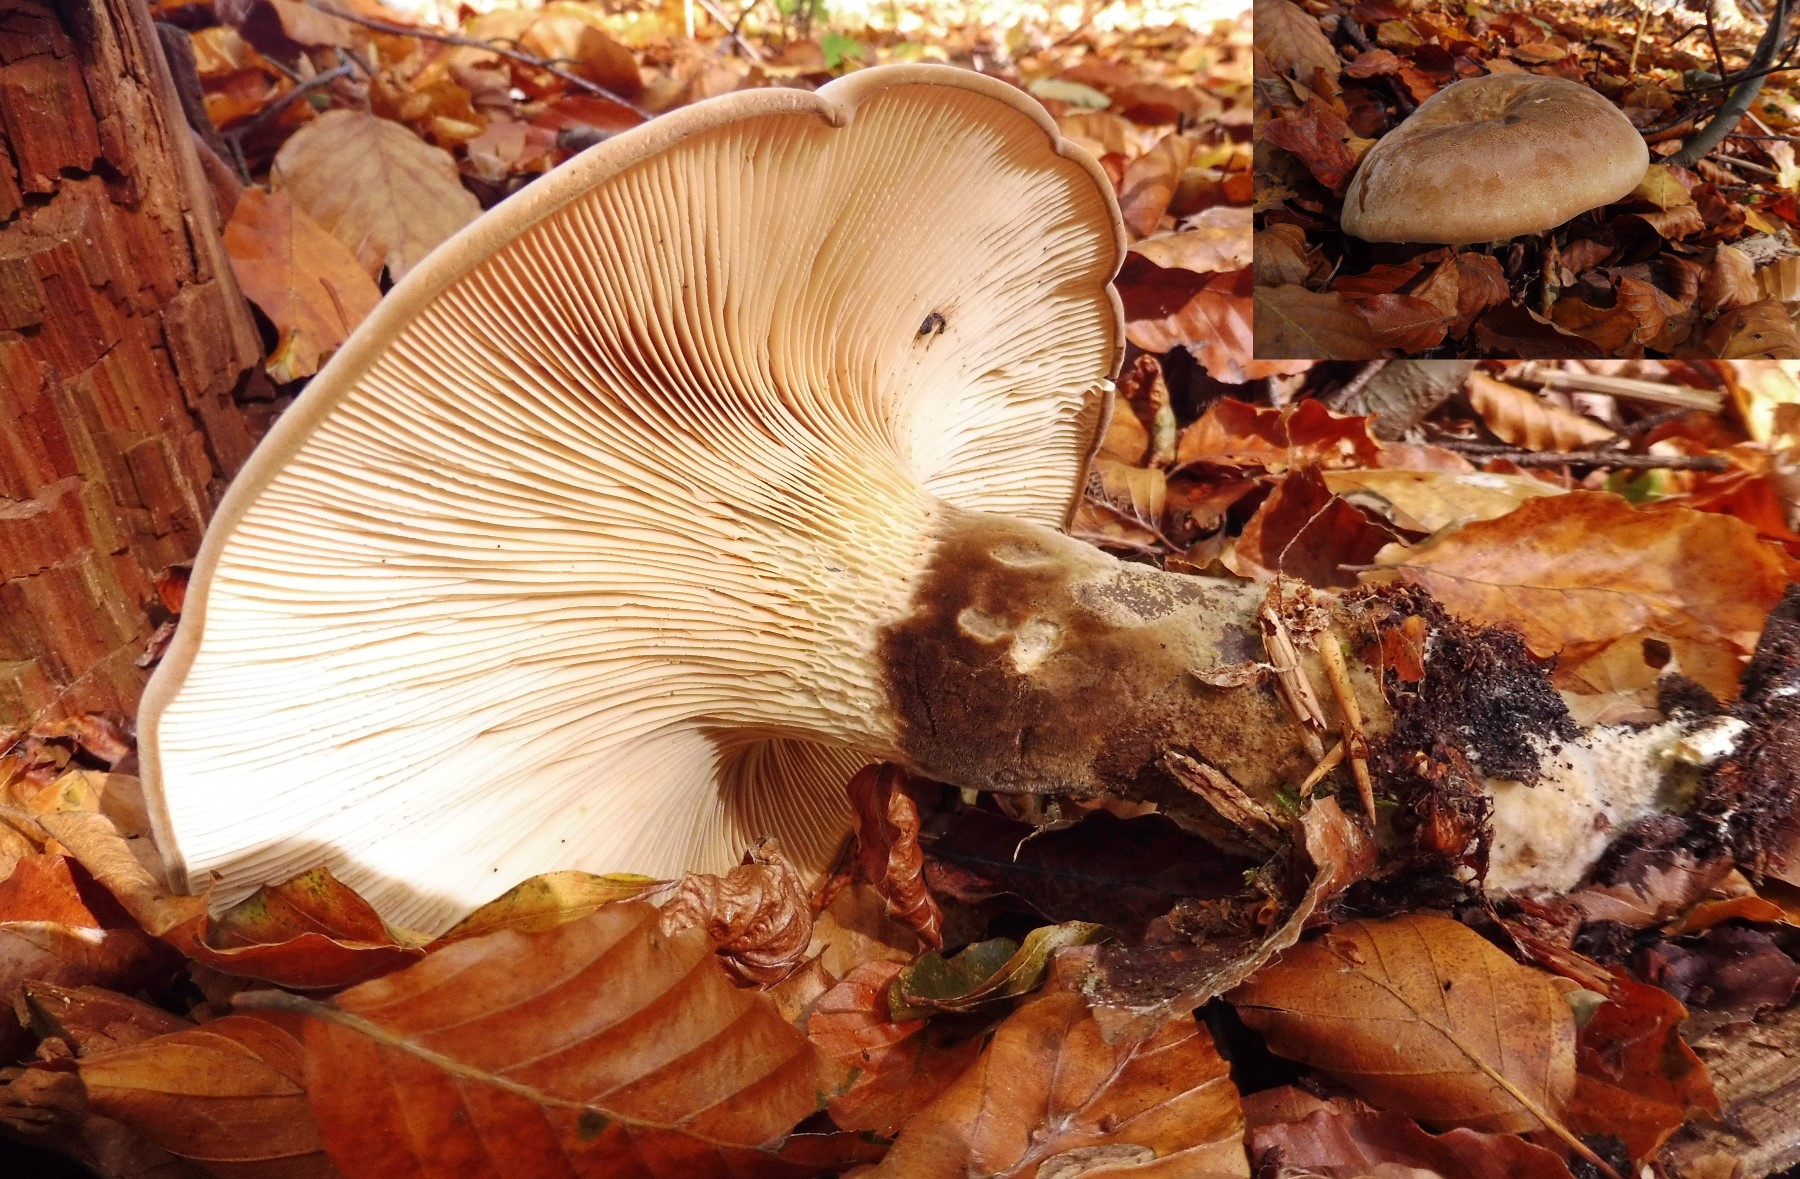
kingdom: Fungi
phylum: Basidiomycota
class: Agaricomycetes
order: Boletales
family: Tapinellaceae
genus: Tapinella
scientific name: Tapinella atrotomentosa
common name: sortfiltet viftesvamp
